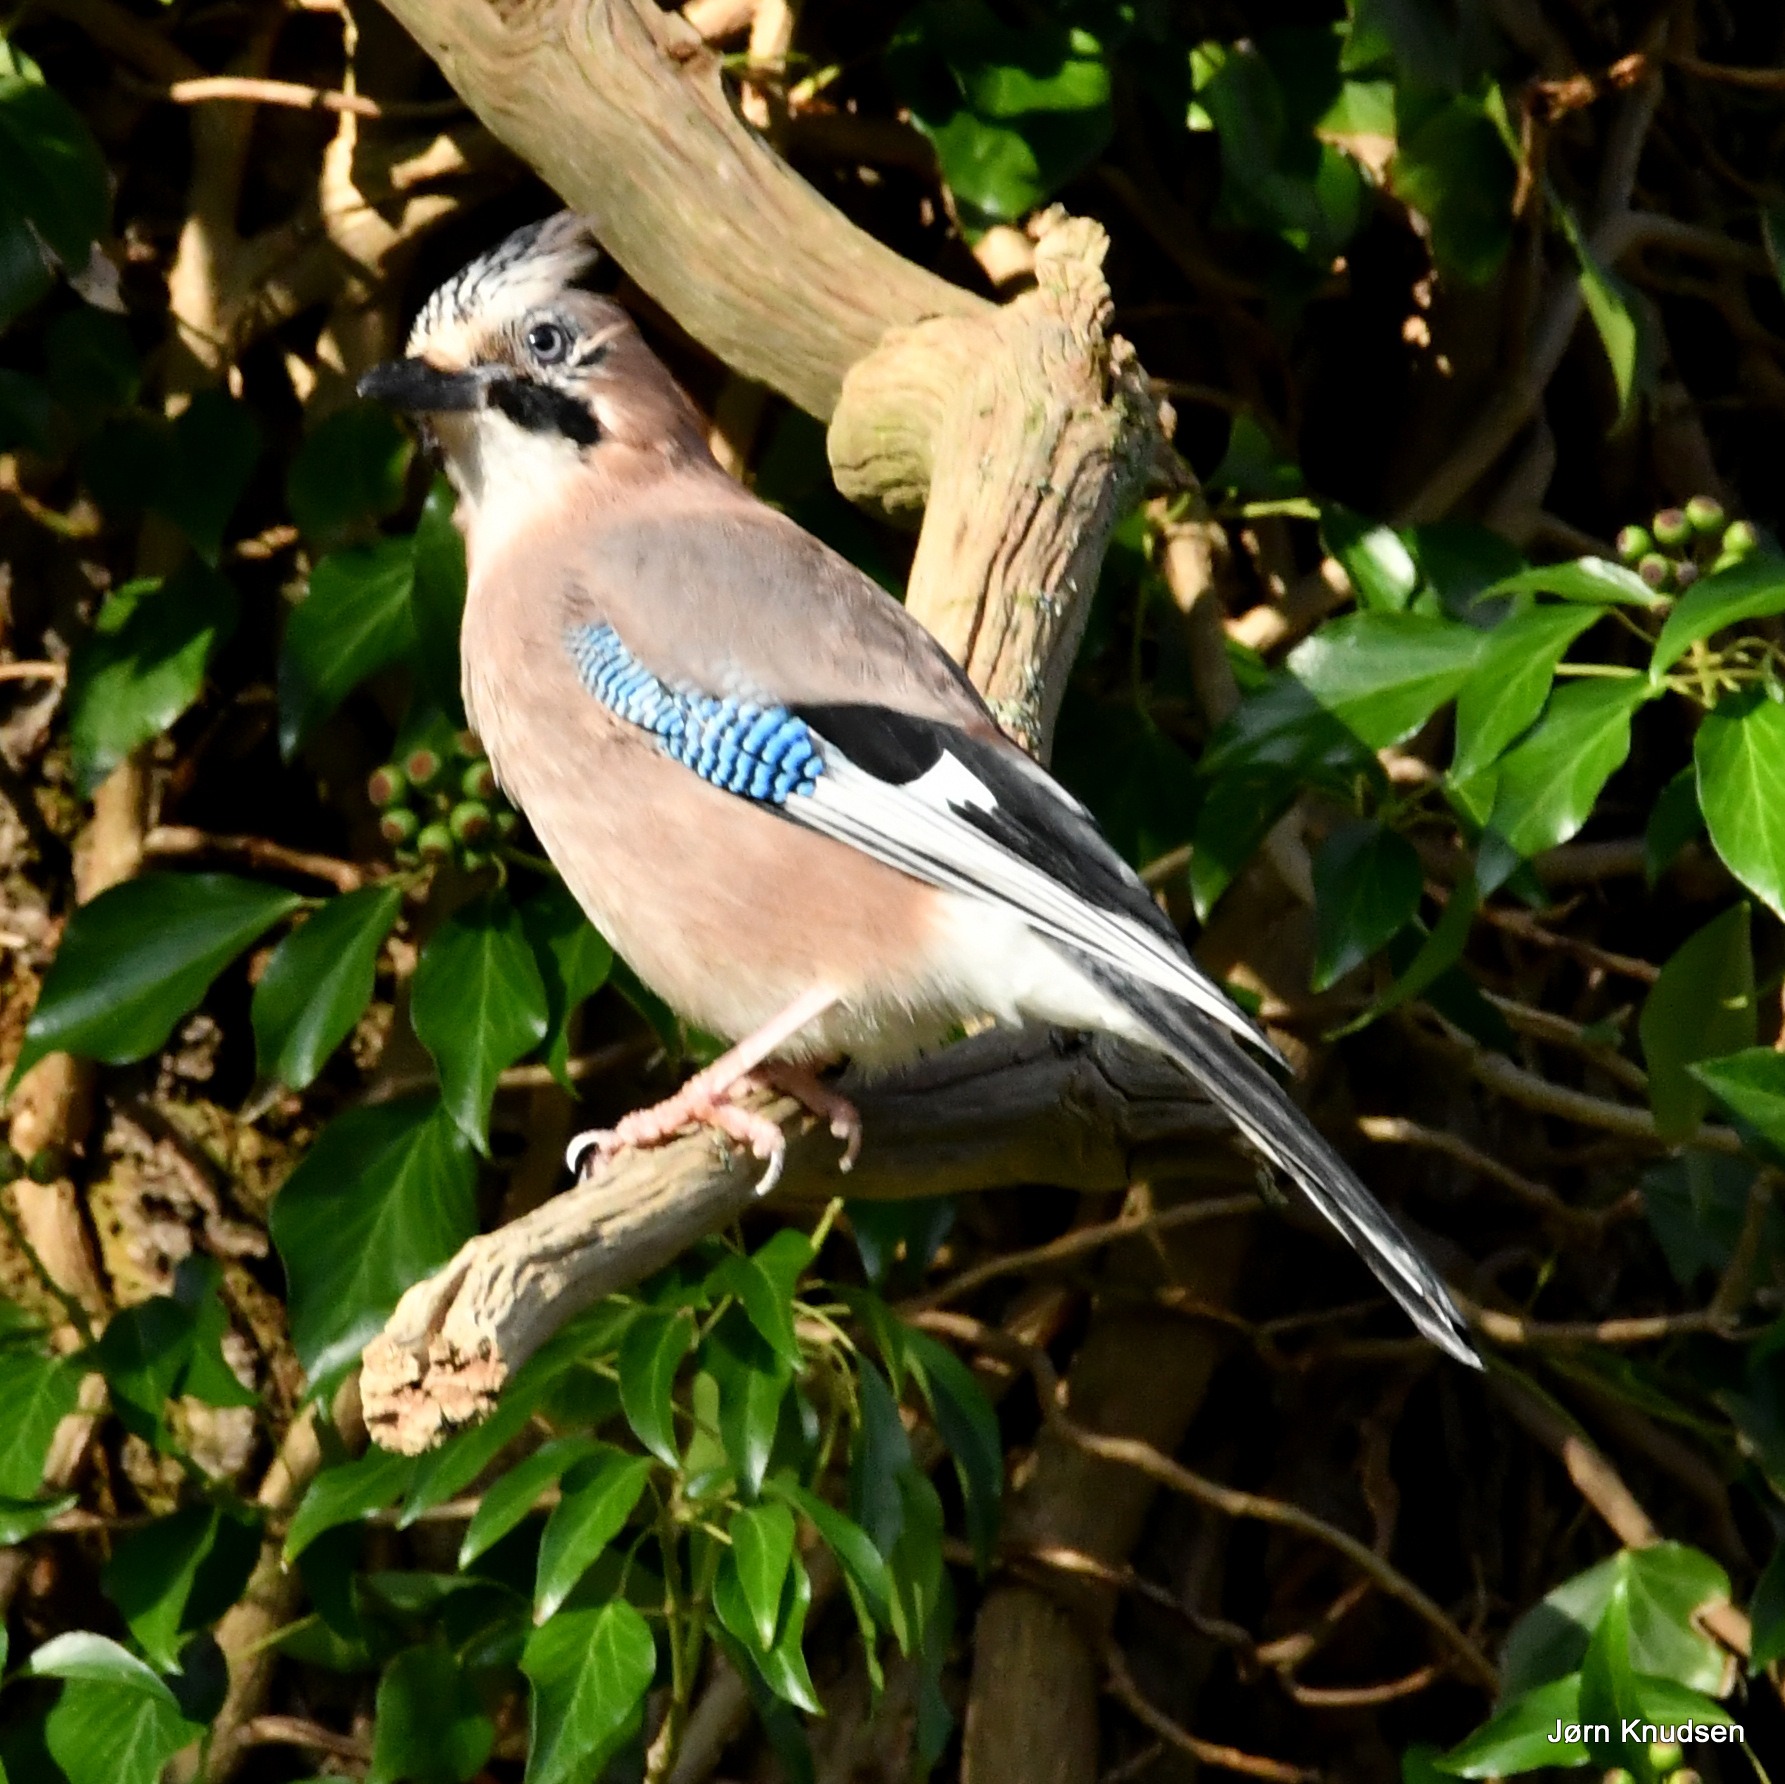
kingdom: Animalia
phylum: Chordata
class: Aves
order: Passeriformes
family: Corvidae
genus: Garrulus
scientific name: Garrulus glandarius
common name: Skovskade
